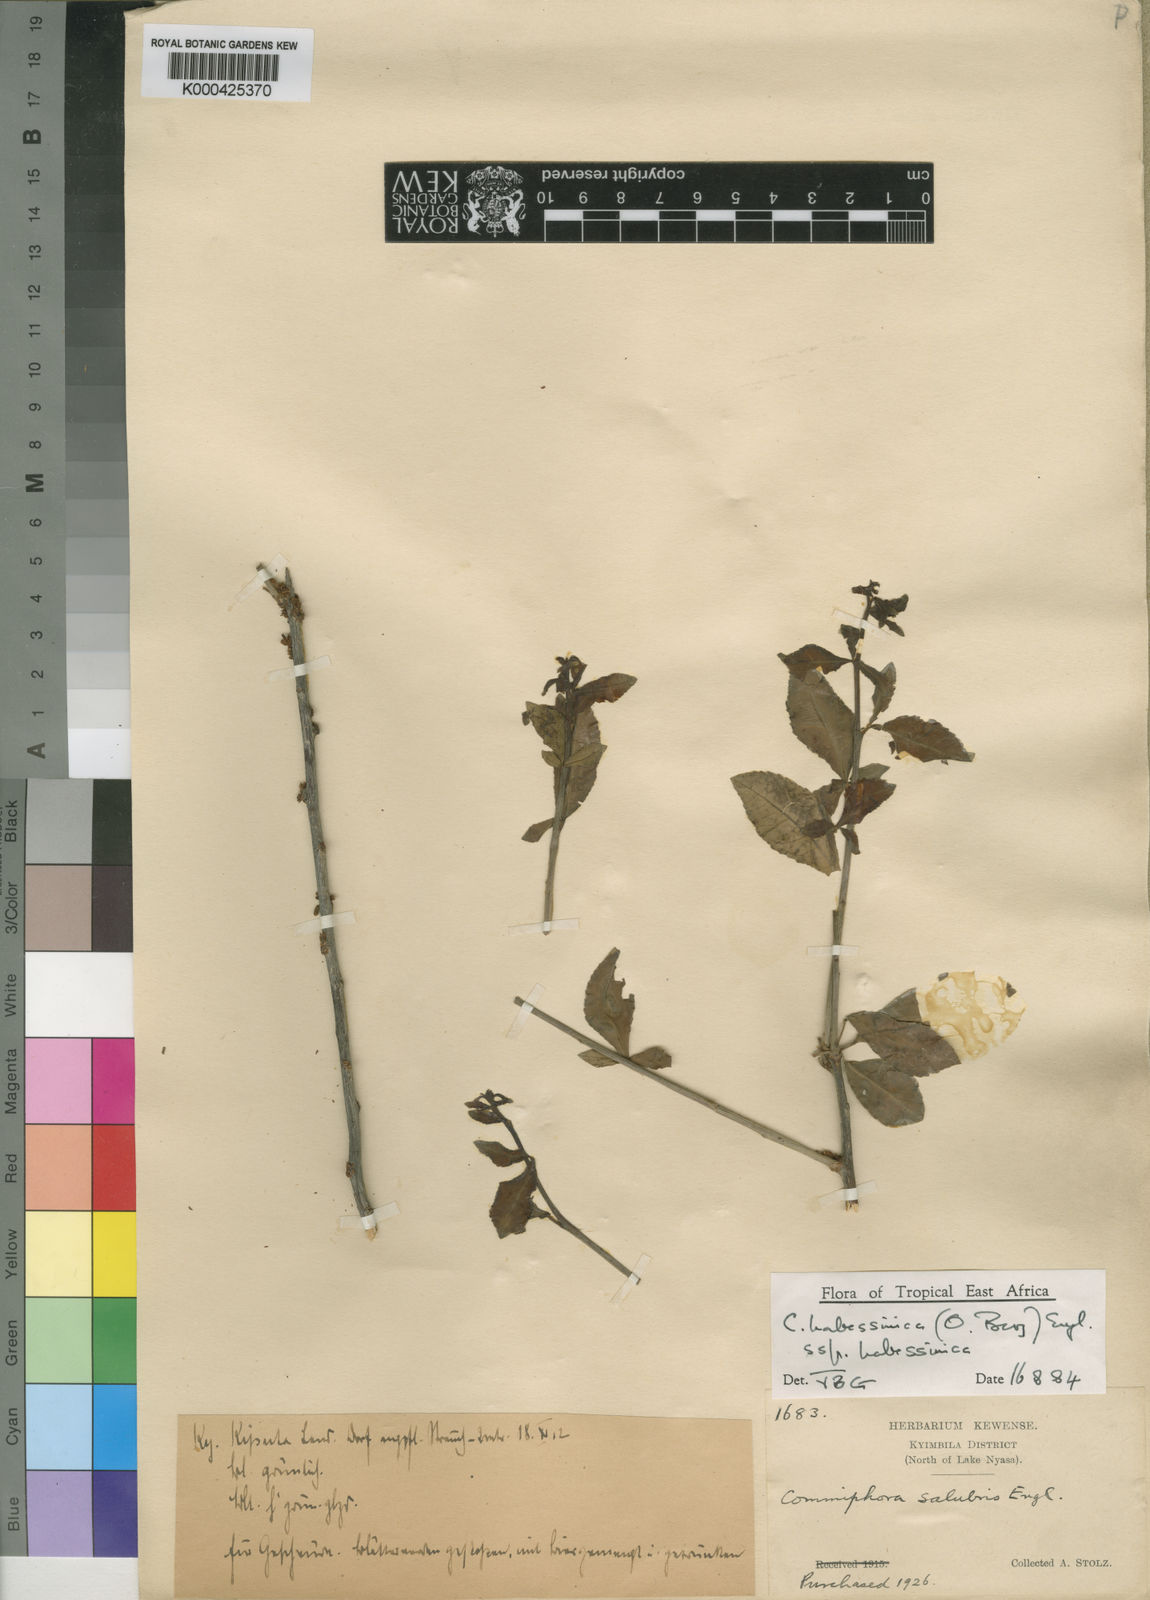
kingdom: Plantae
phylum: Tracheophyta
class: Magnoliopsida
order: Sapindales
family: Burseraceae
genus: Commiphora
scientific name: Commiphora kua
